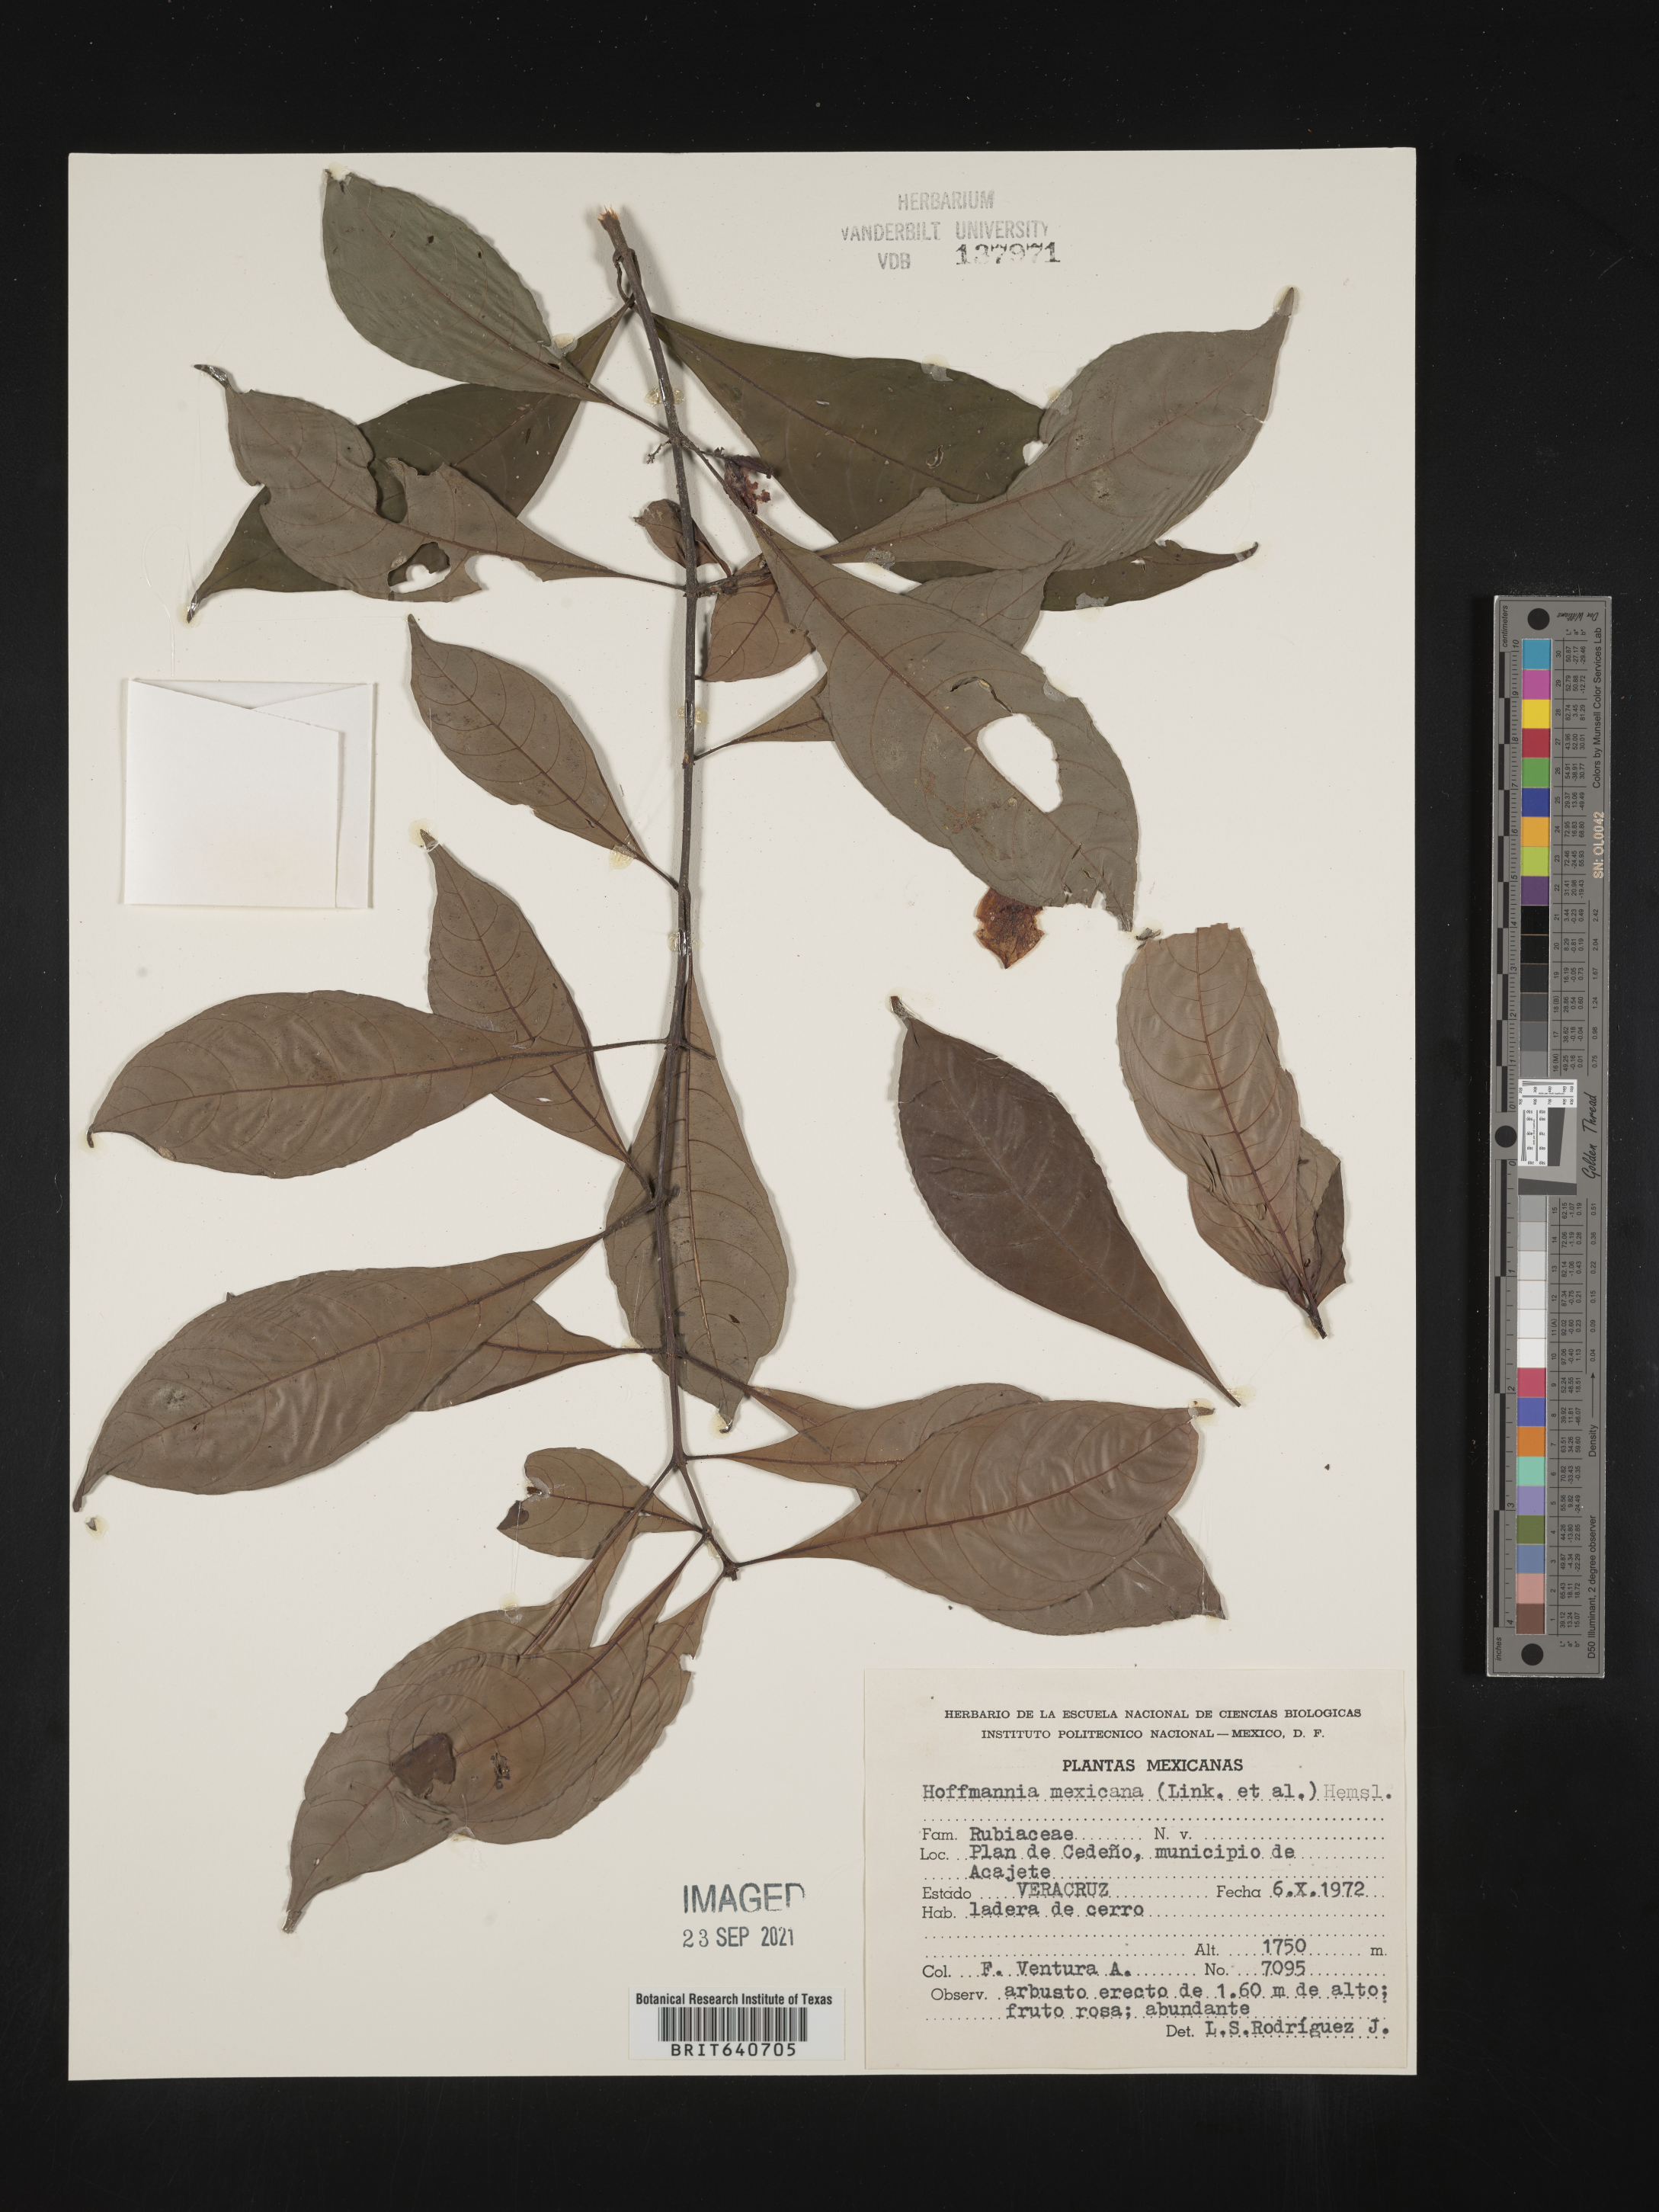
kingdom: Plantae
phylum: Tracheophyta
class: Magnoliopsida
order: Gentianales
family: Rubiaceae
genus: Hoffmannia
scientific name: Hoffmannia
